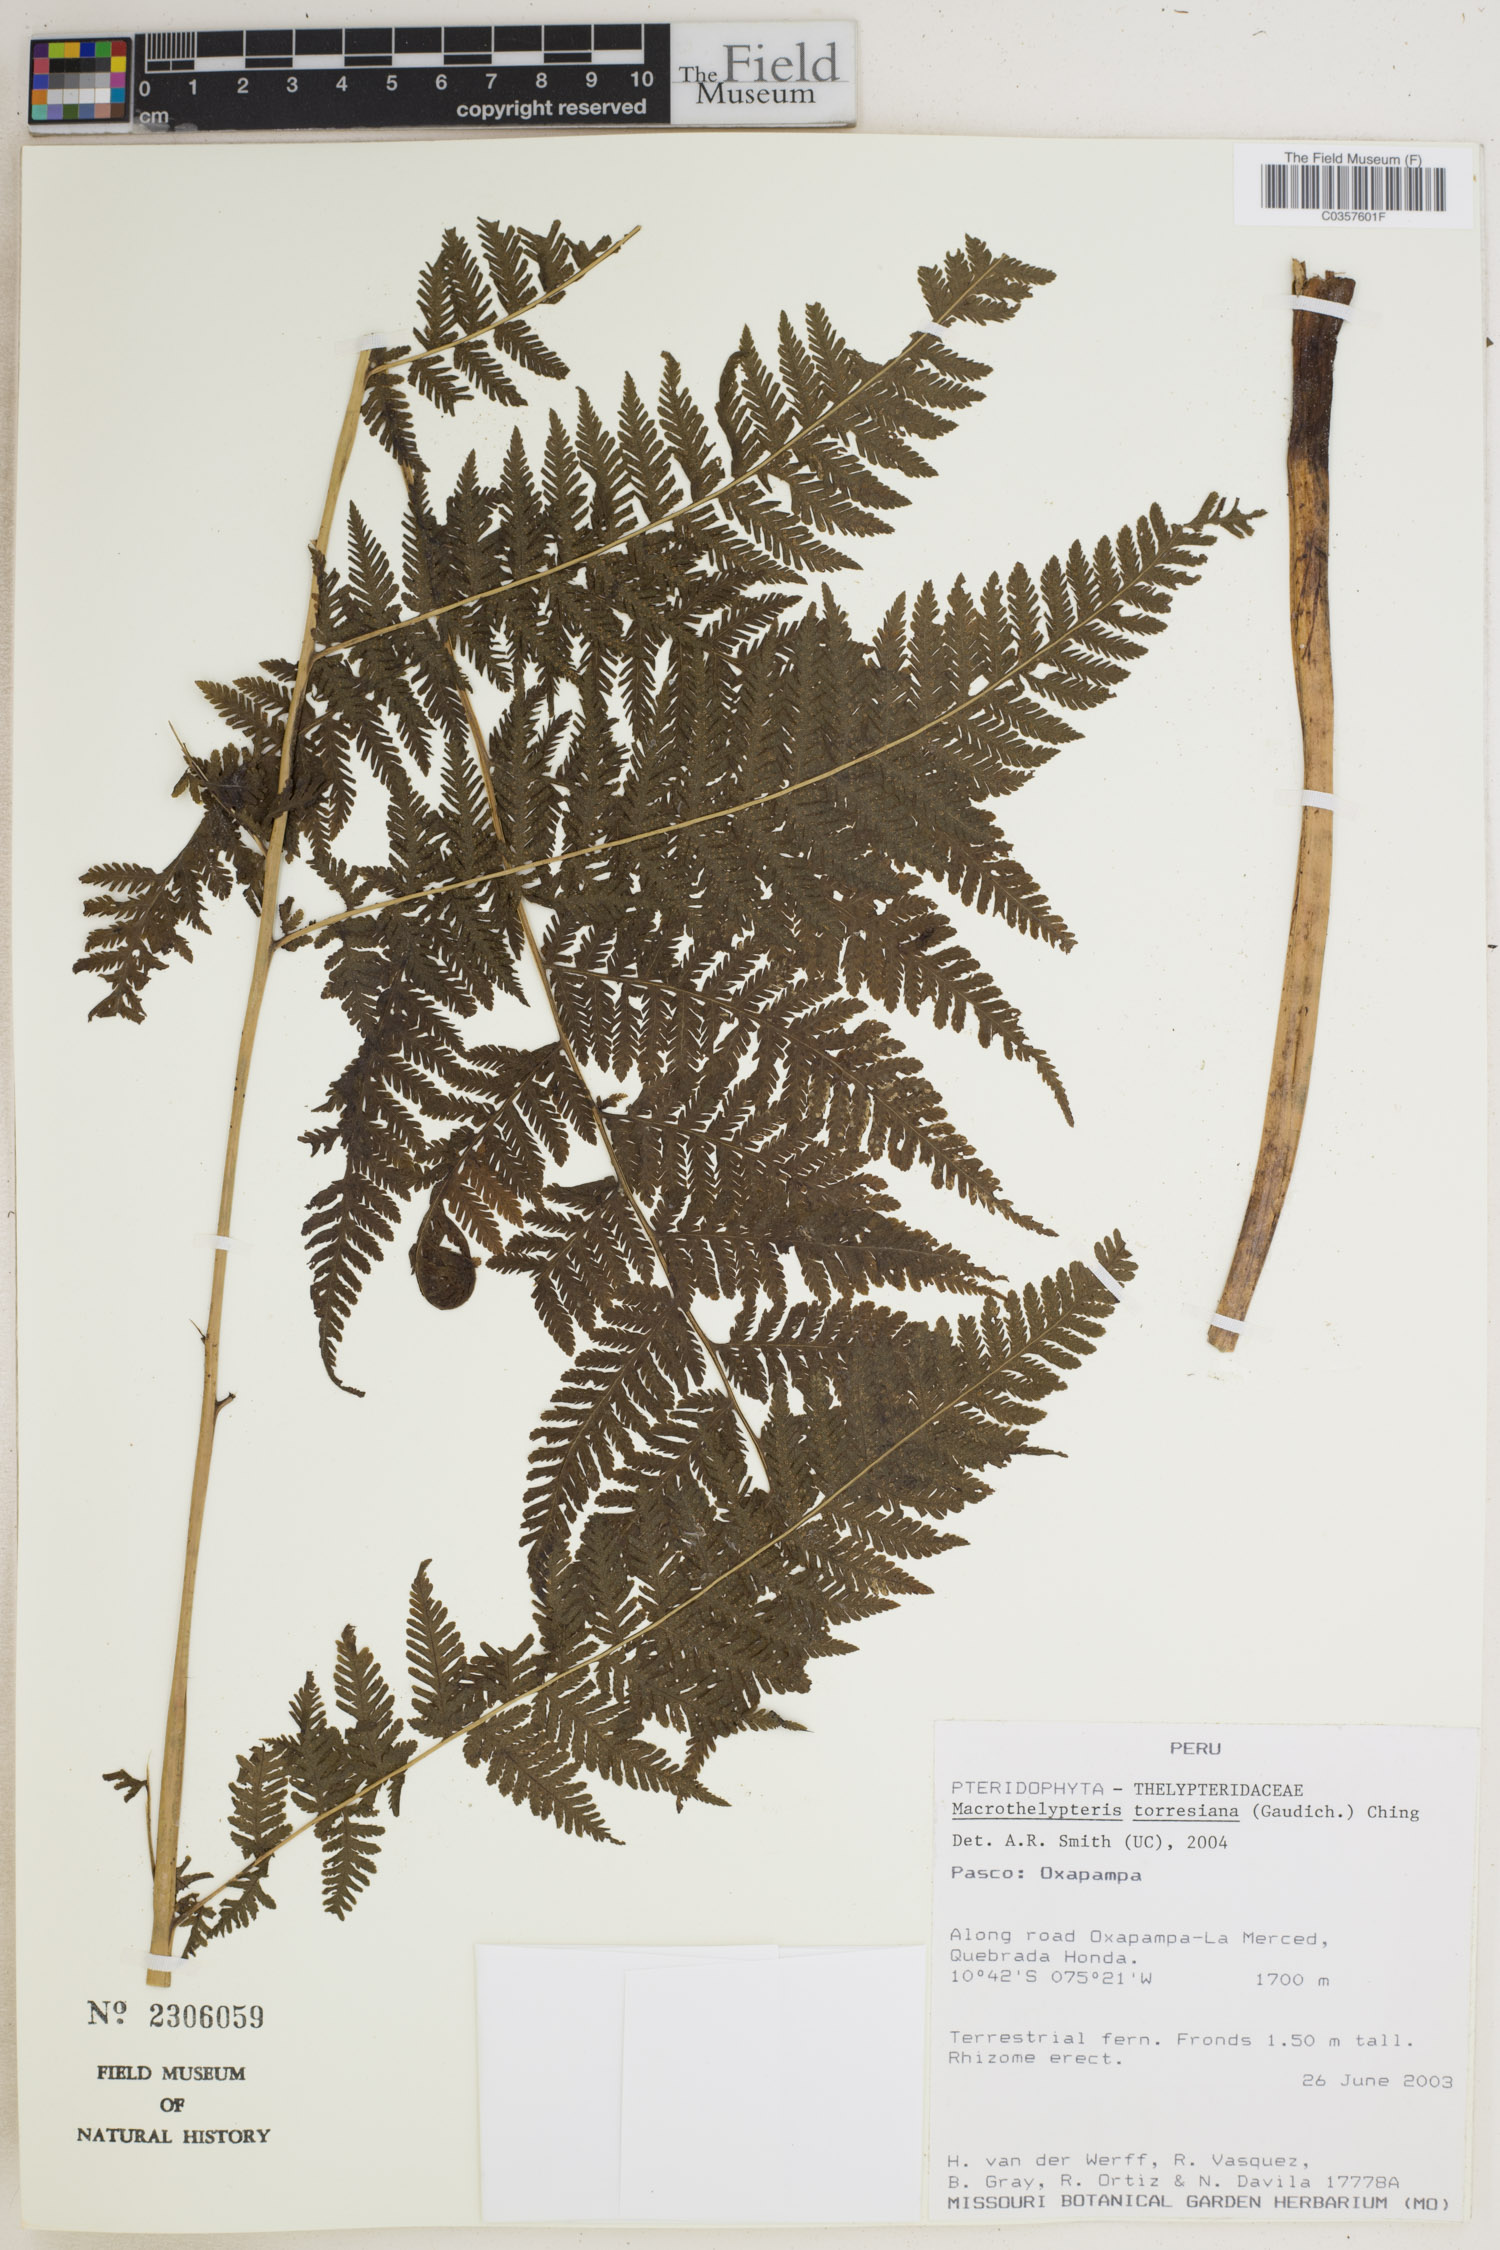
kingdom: Plantae
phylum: Tracheophyta
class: Polypodiopsida
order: Polypodiales
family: Thelypteridaceae
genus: Macrothelypteris
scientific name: Macrothelypteris torresiana
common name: Swordfern
